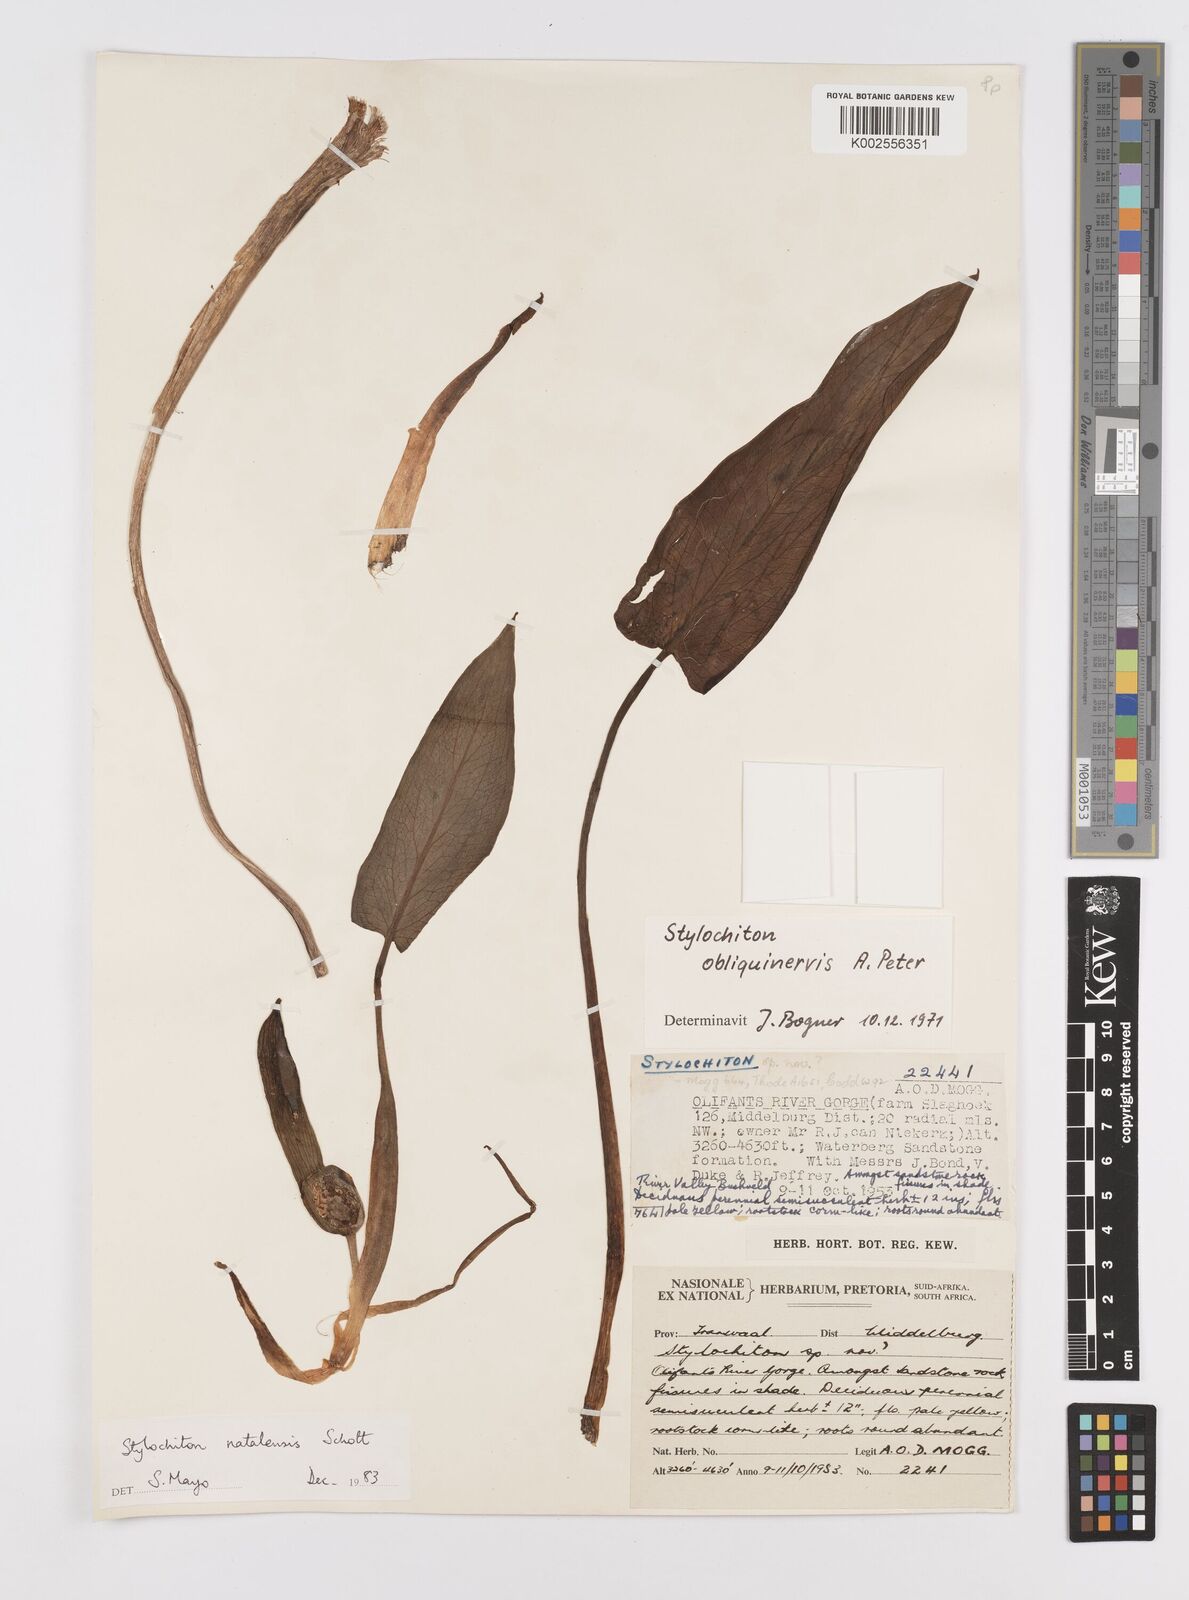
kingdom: Plantae
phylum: Tracheophyta
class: Liliopsida
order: Alismatales
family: Araceae
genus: Stylochaeton
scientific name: Stylochaeton natalense
